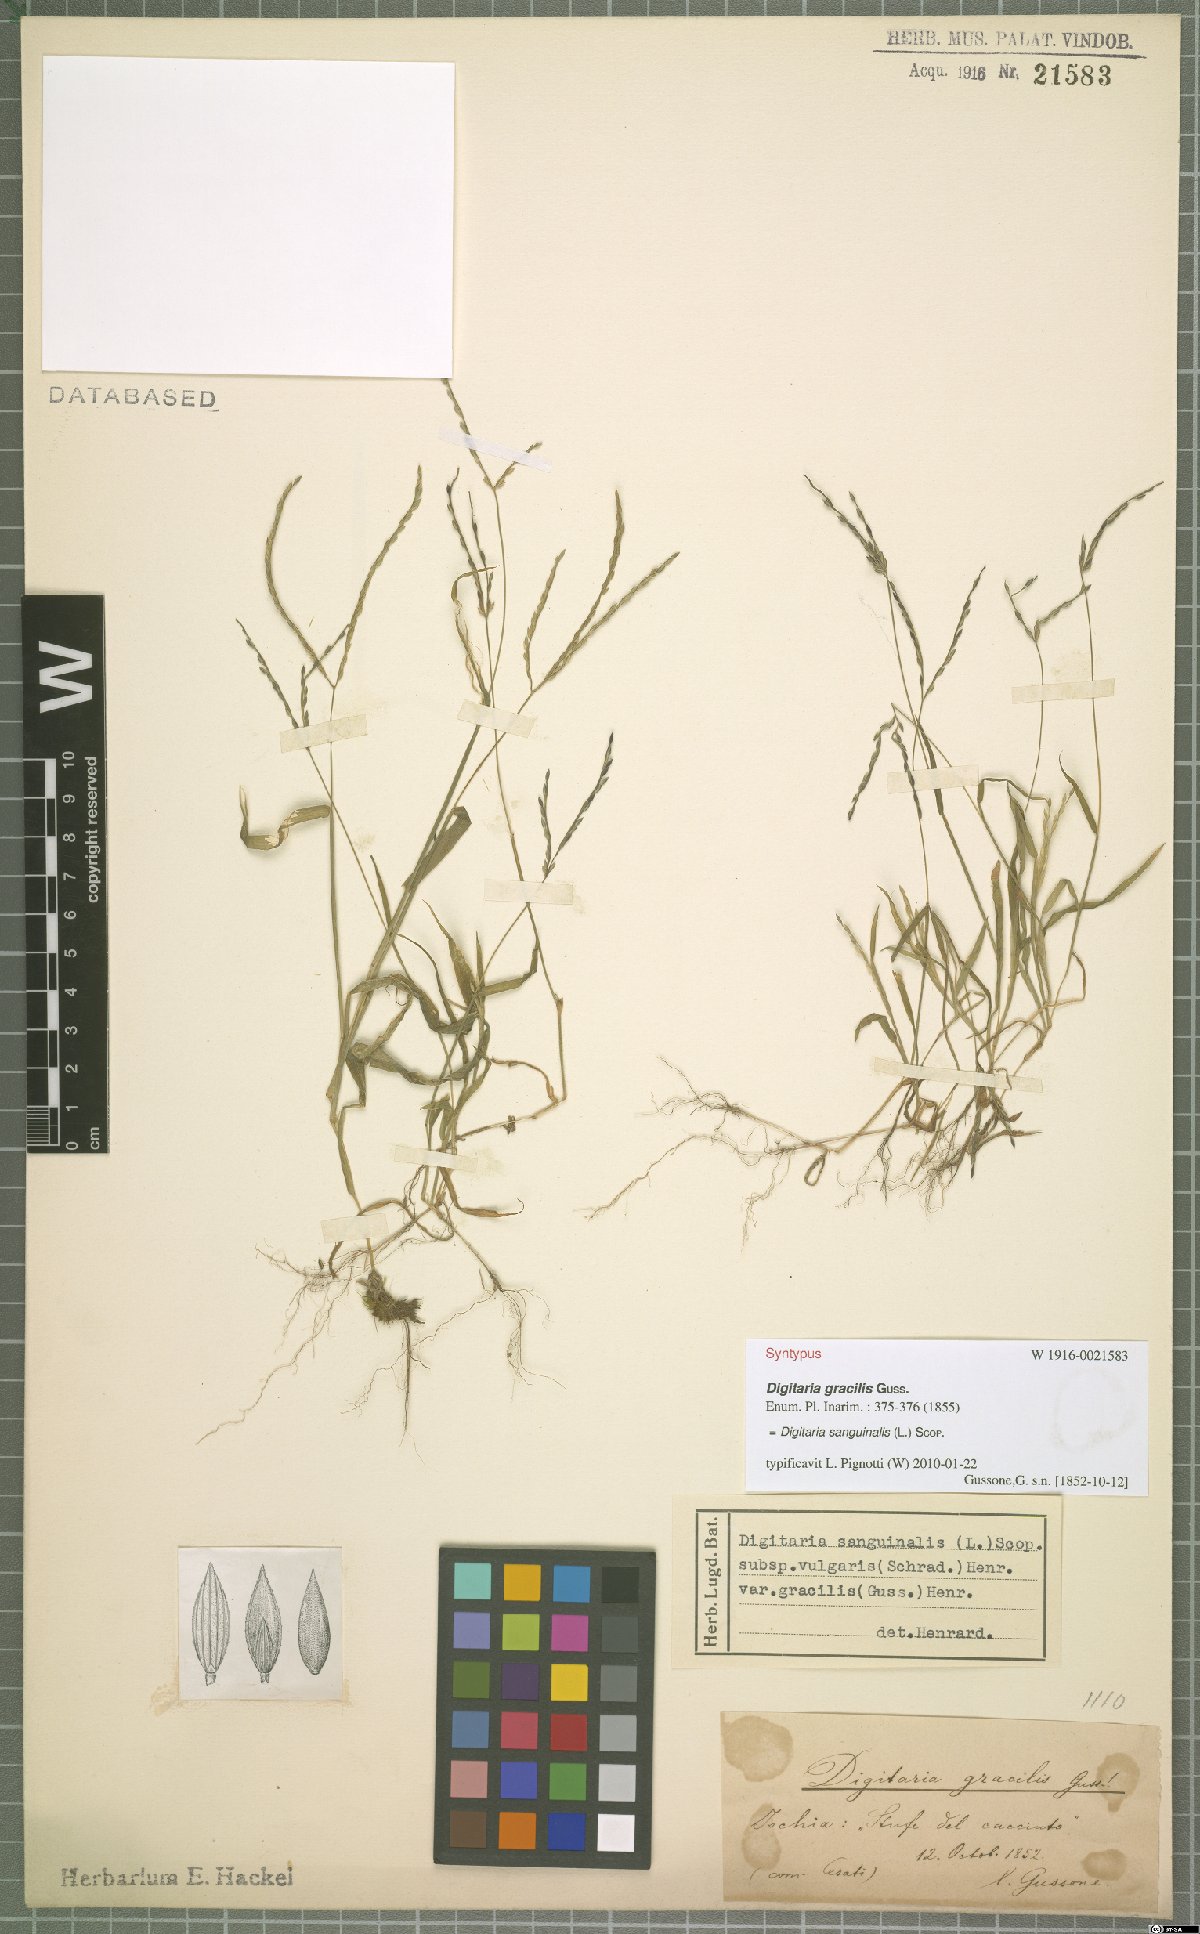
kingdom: Plantae
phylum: Tracheophyta
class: Liliopsida
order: Poales
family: Poaceae
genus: Digitaria
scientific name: Digitaria sanguinalis
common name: Hairy crabgrass
